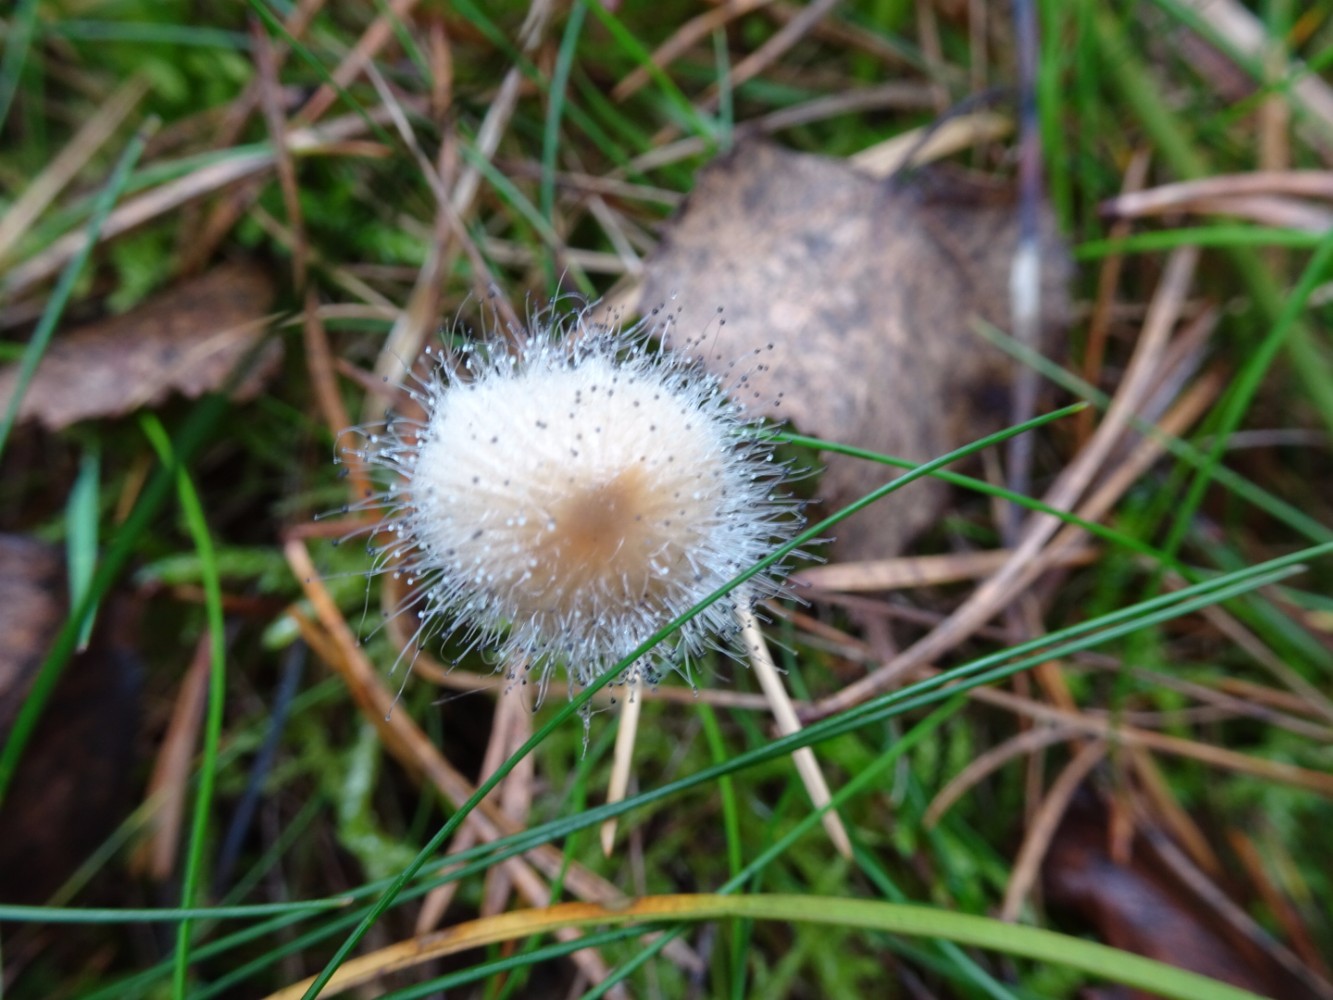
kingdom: Fungi
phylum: Mucoromycota
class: Mucoromycetes
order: Mucorales
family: Phycomycetaceae
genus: Spinellus
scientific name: Spinellus fusiger
